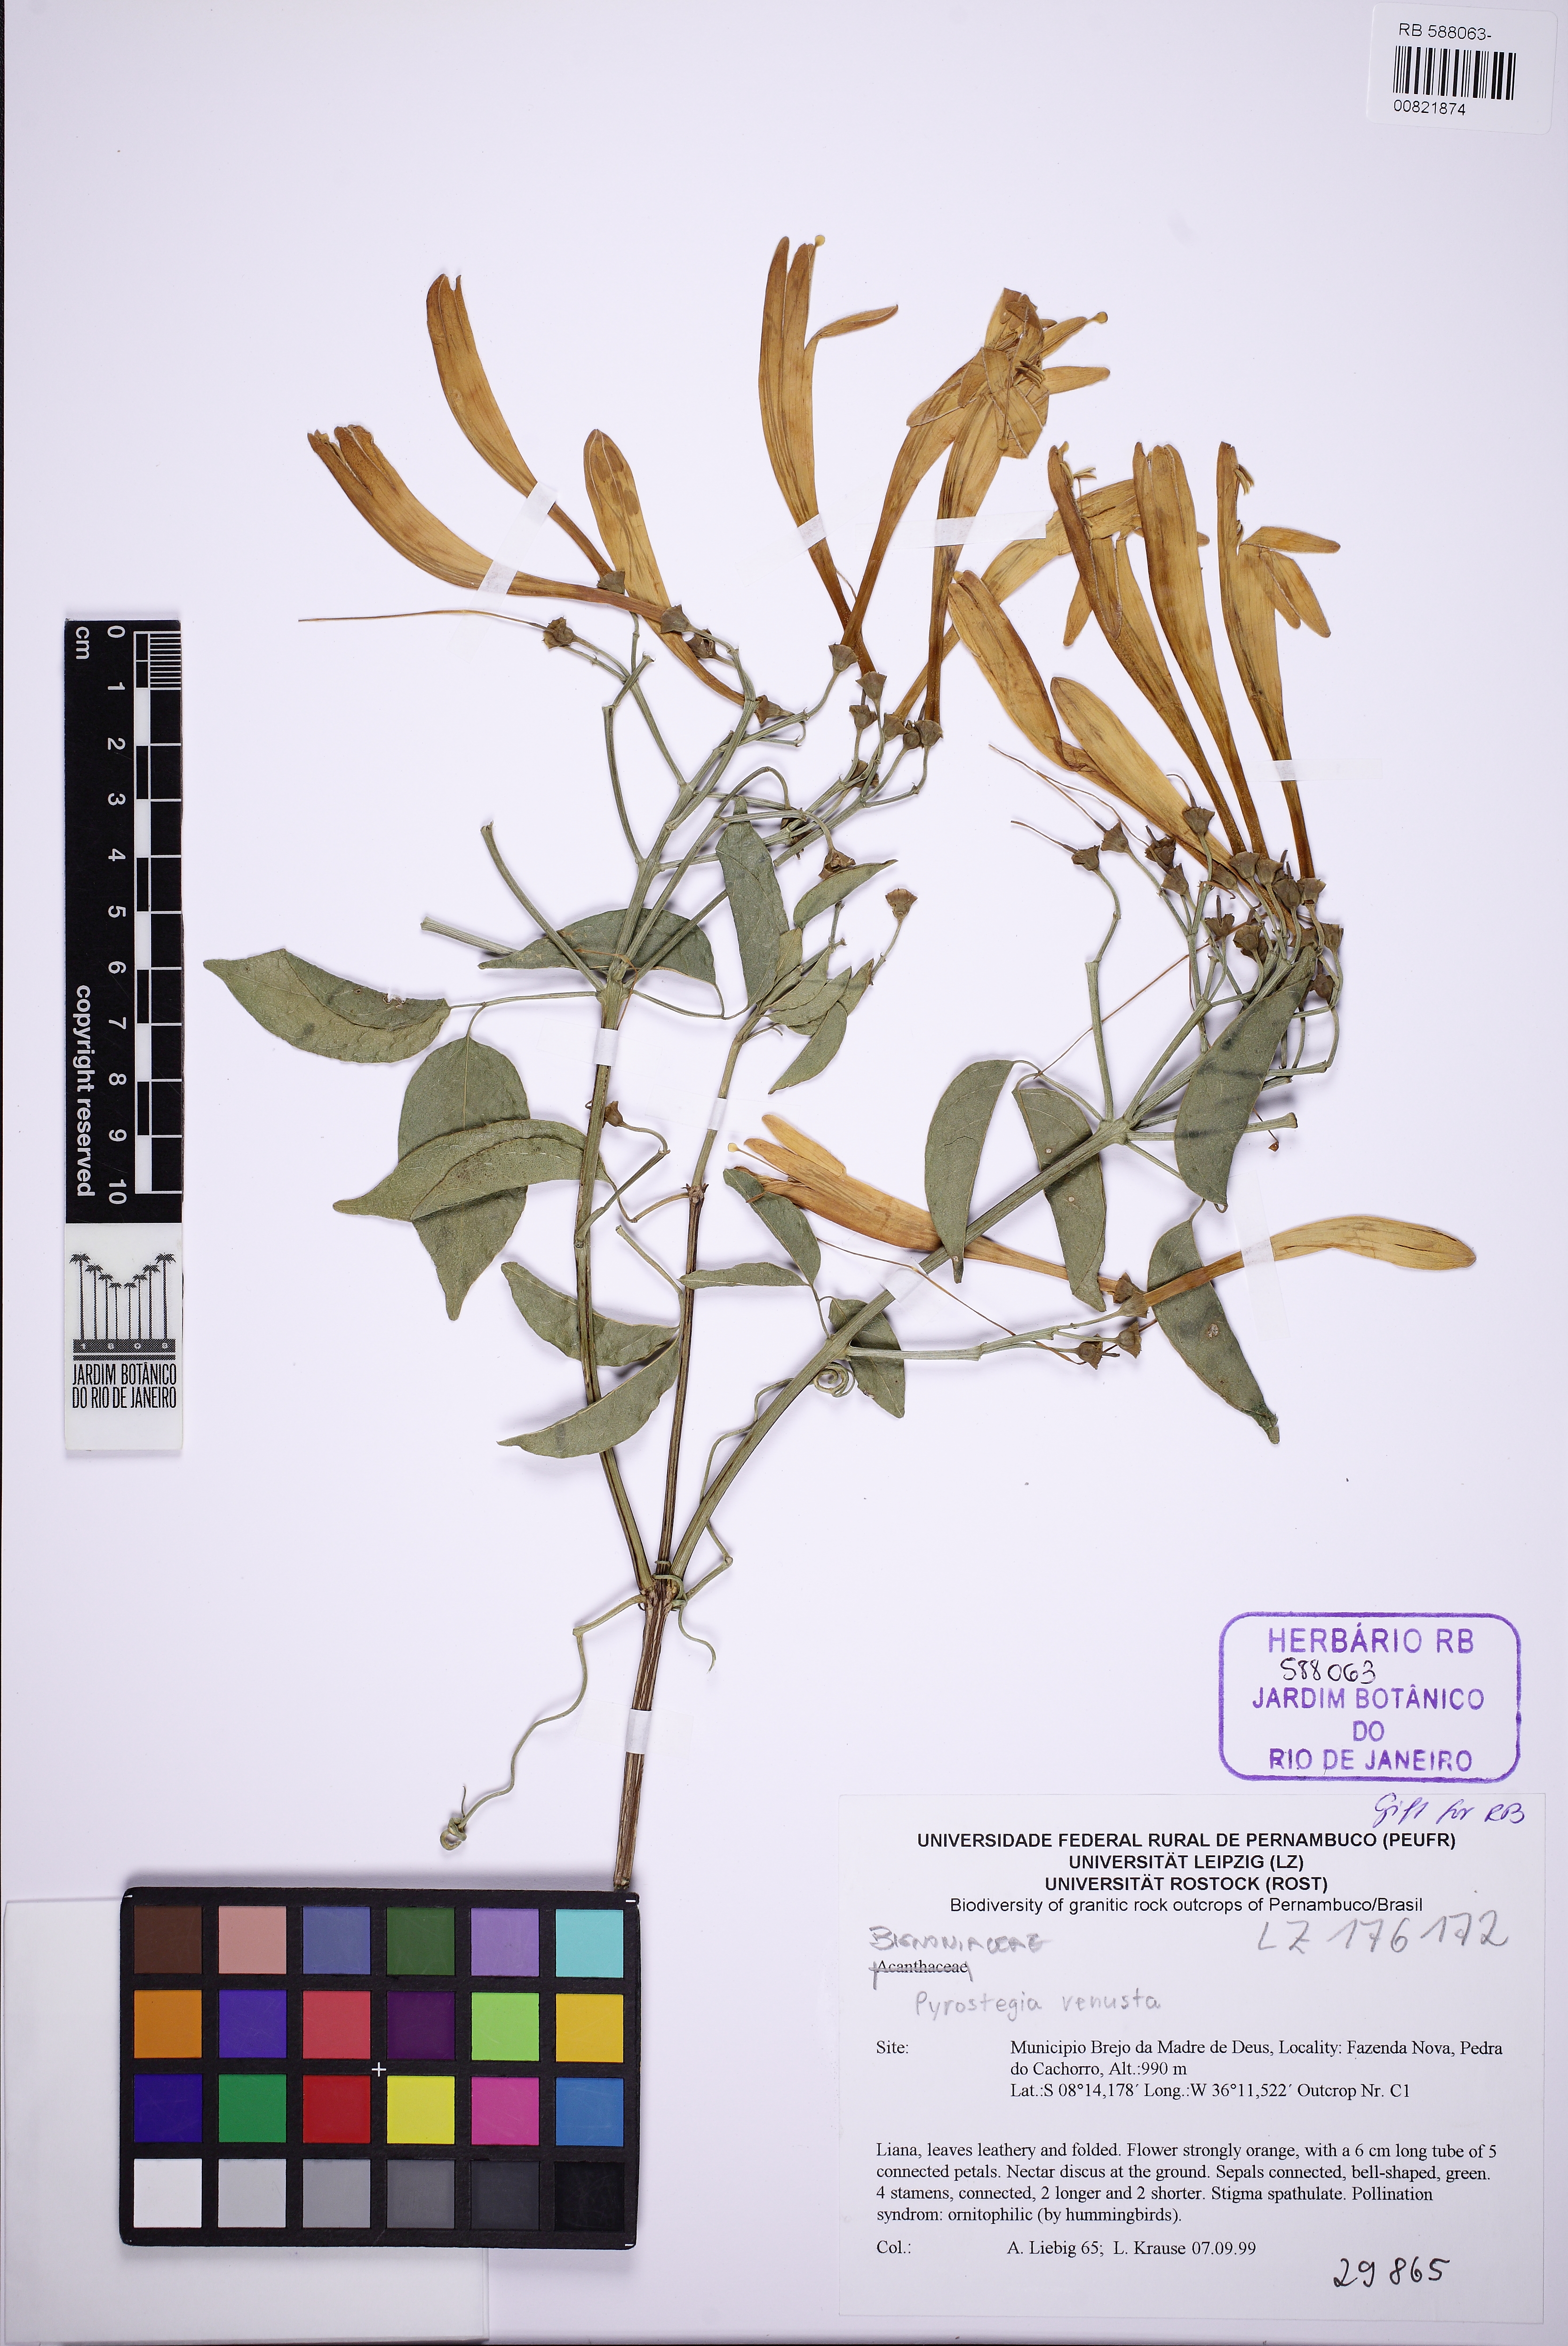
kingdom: Plantae
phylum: Tracheophyta
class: Magnoliopsida
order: Lamiales
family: Bignoniaceae
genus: Pyrostegia
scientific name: Pyrostegia venusta
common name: Flamevine
